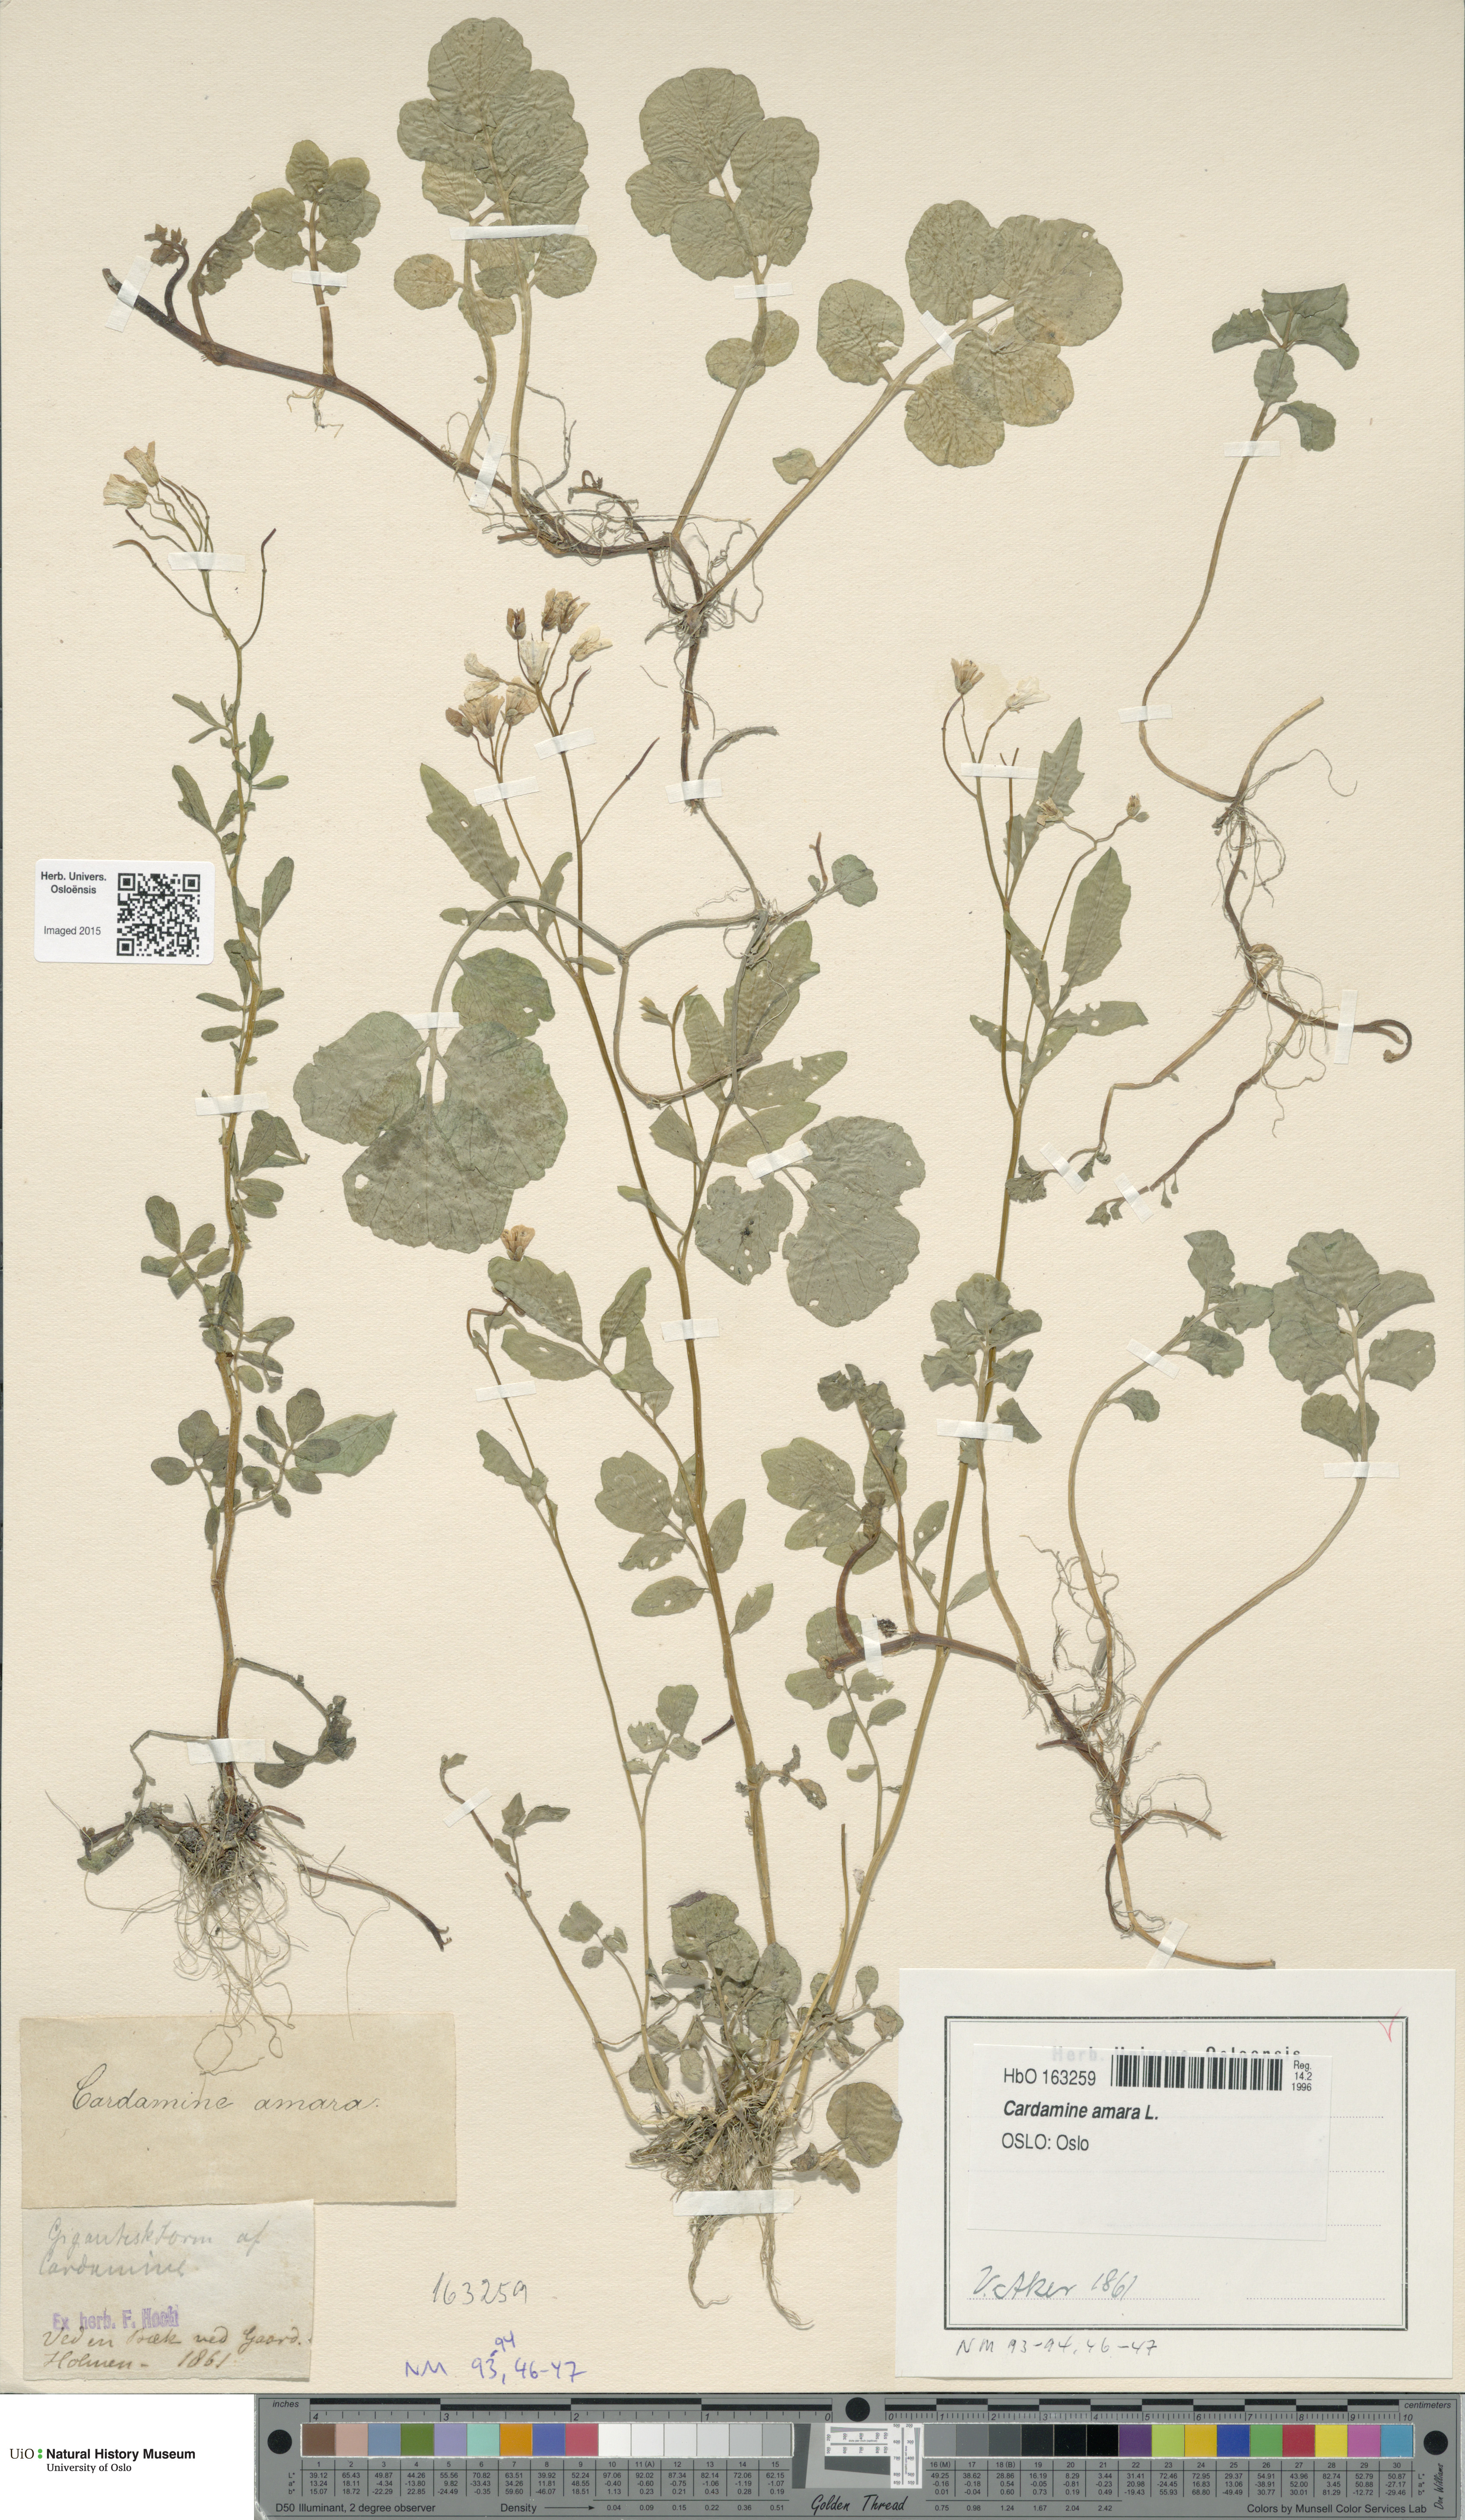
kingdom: Plantae
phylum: Tracheophyta
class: Magnoliopsida
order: Brassicales
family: Brassicaceae
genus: Cardamine
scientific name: Cardamine amara
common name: Large bitter-cress
